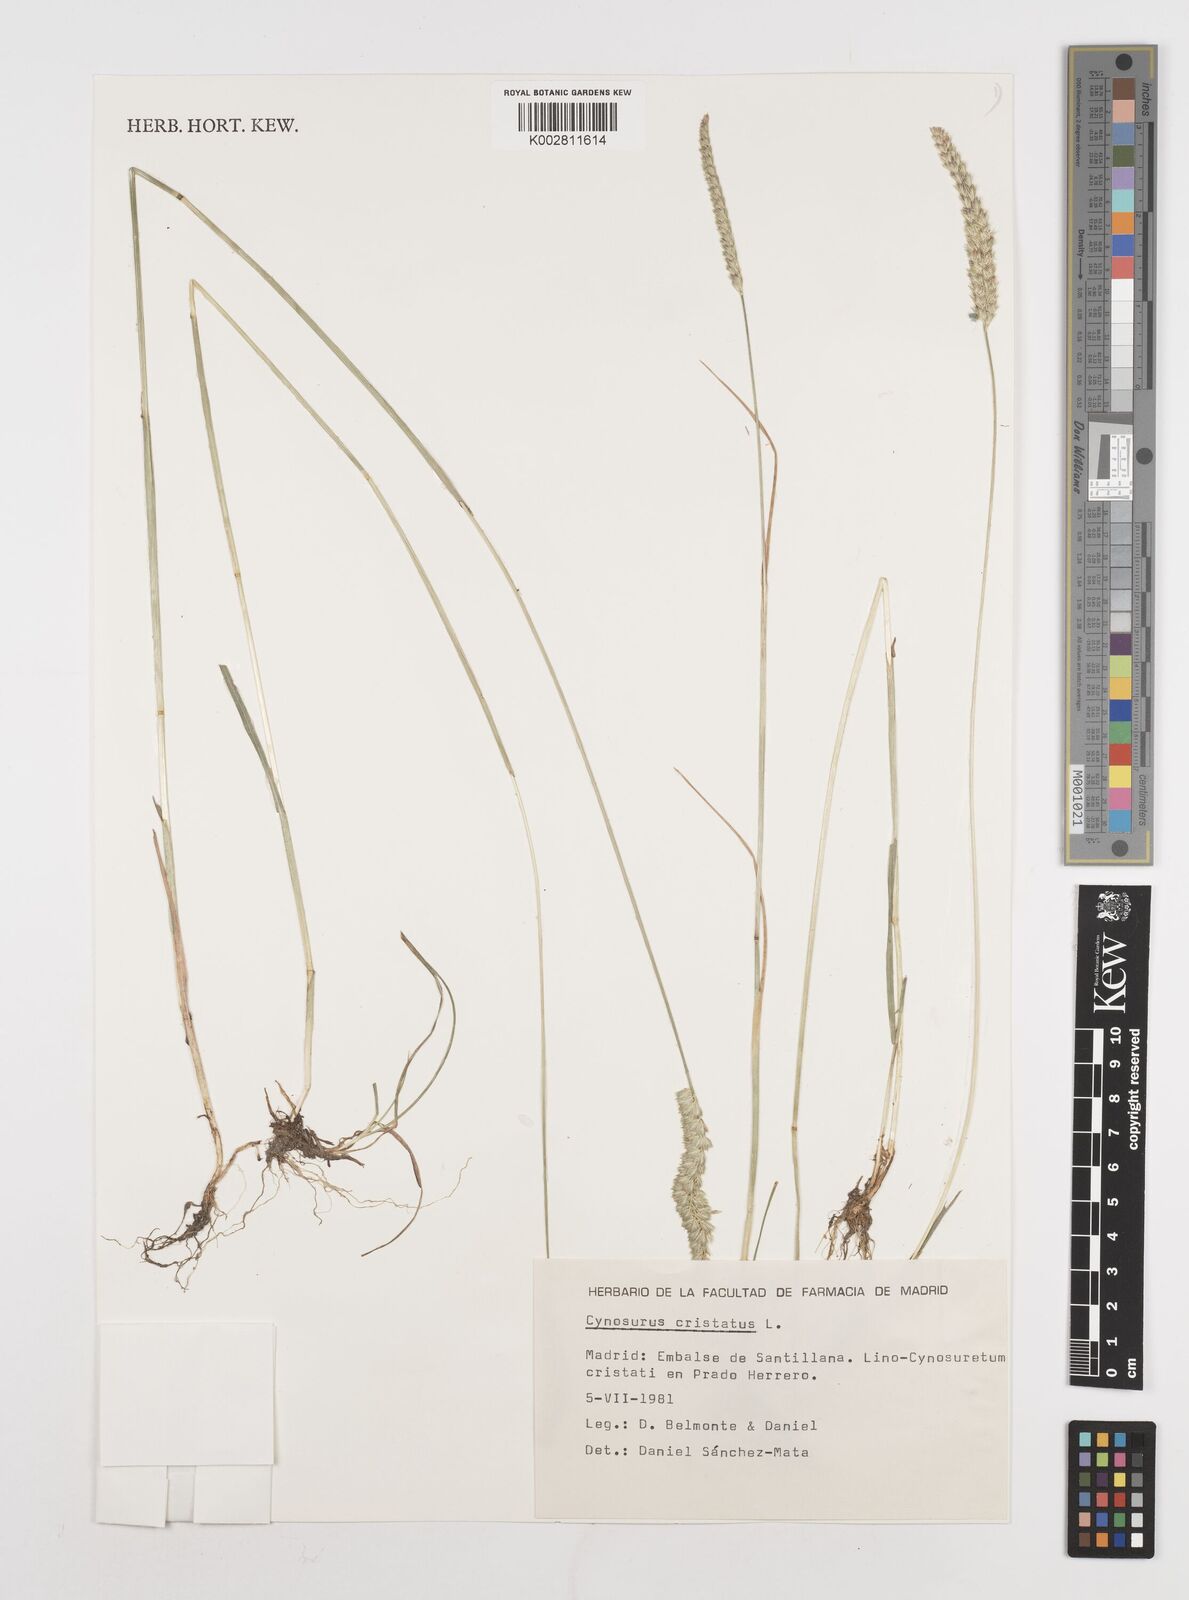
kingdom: Plantae
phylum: Tracheophyta
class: Liliopsida
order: Poales
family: Poaceae
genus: Cynosurus
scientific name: Cynosurus cristatus
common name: Crested dog's-tail
